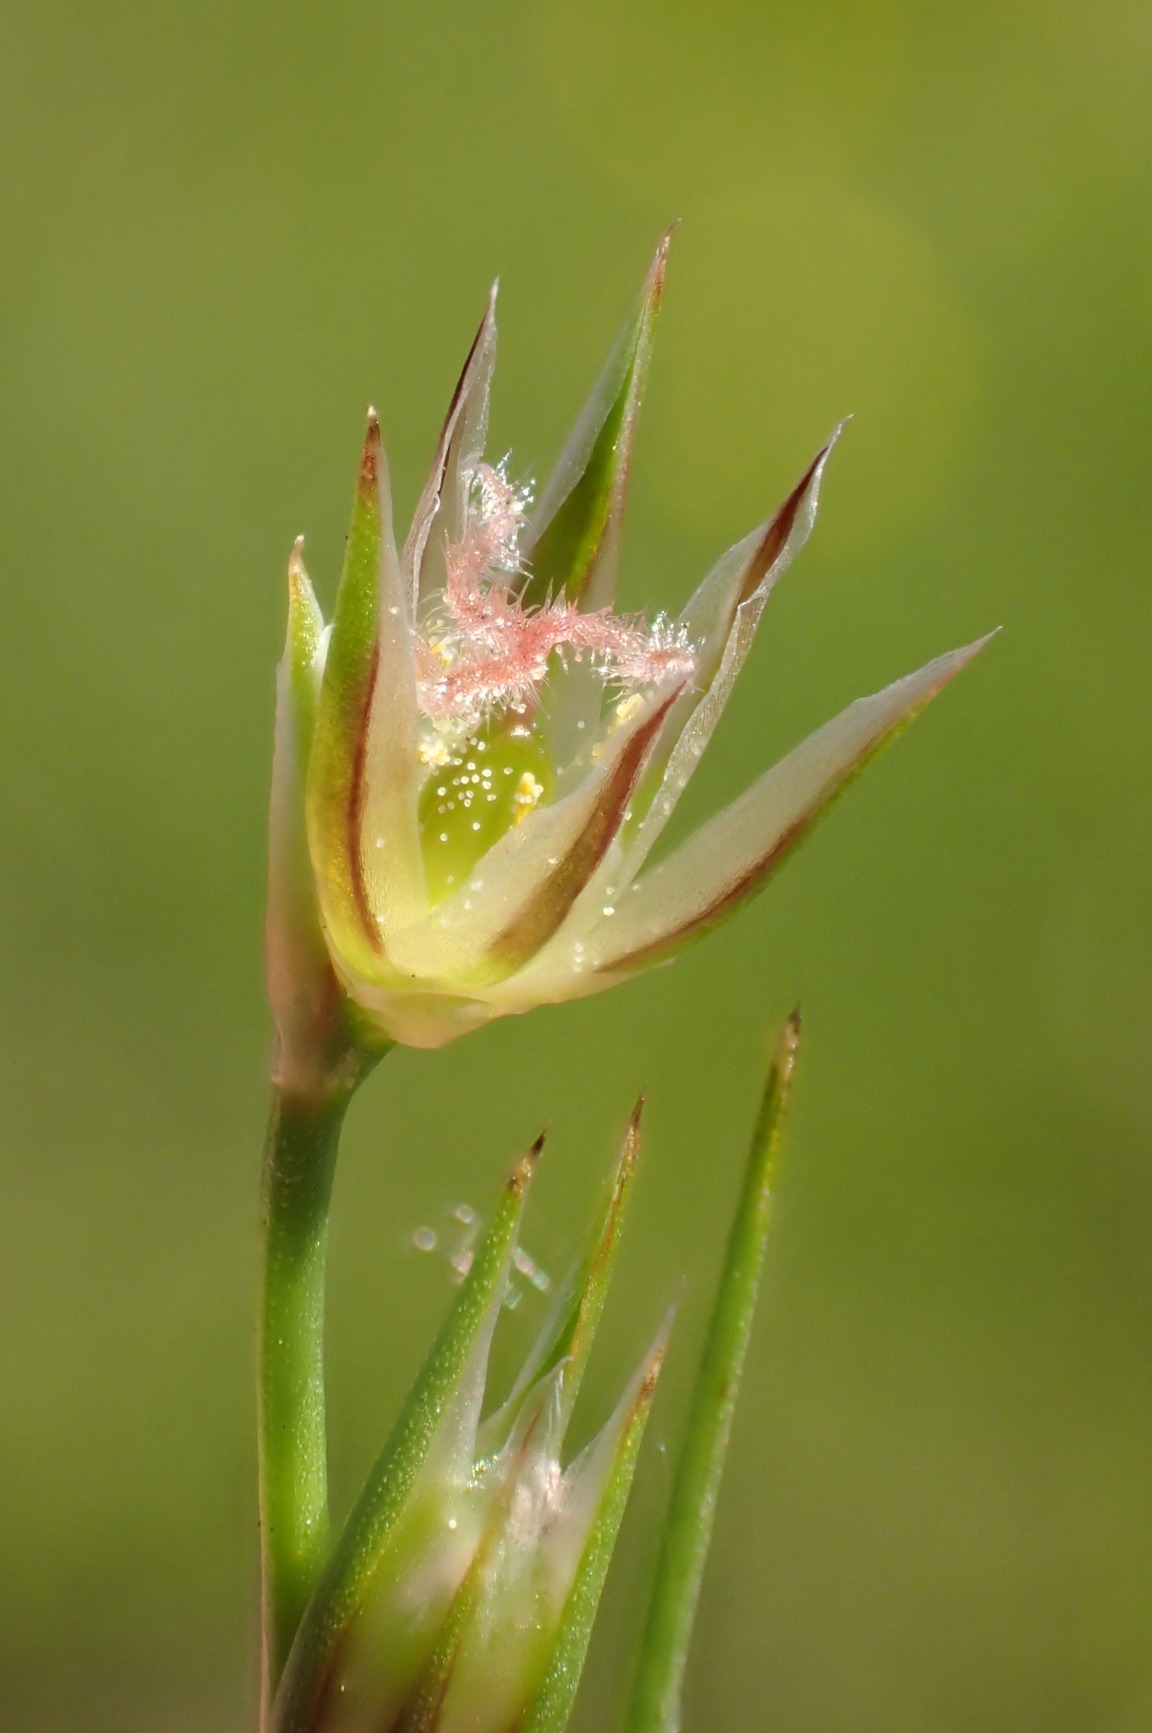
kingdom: Plantae
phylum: Tracheophyta
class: Liliopsida
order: Poales
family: Juncaceae
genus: Juncus
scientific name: Juncus bufonius
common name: Tudse-siv
